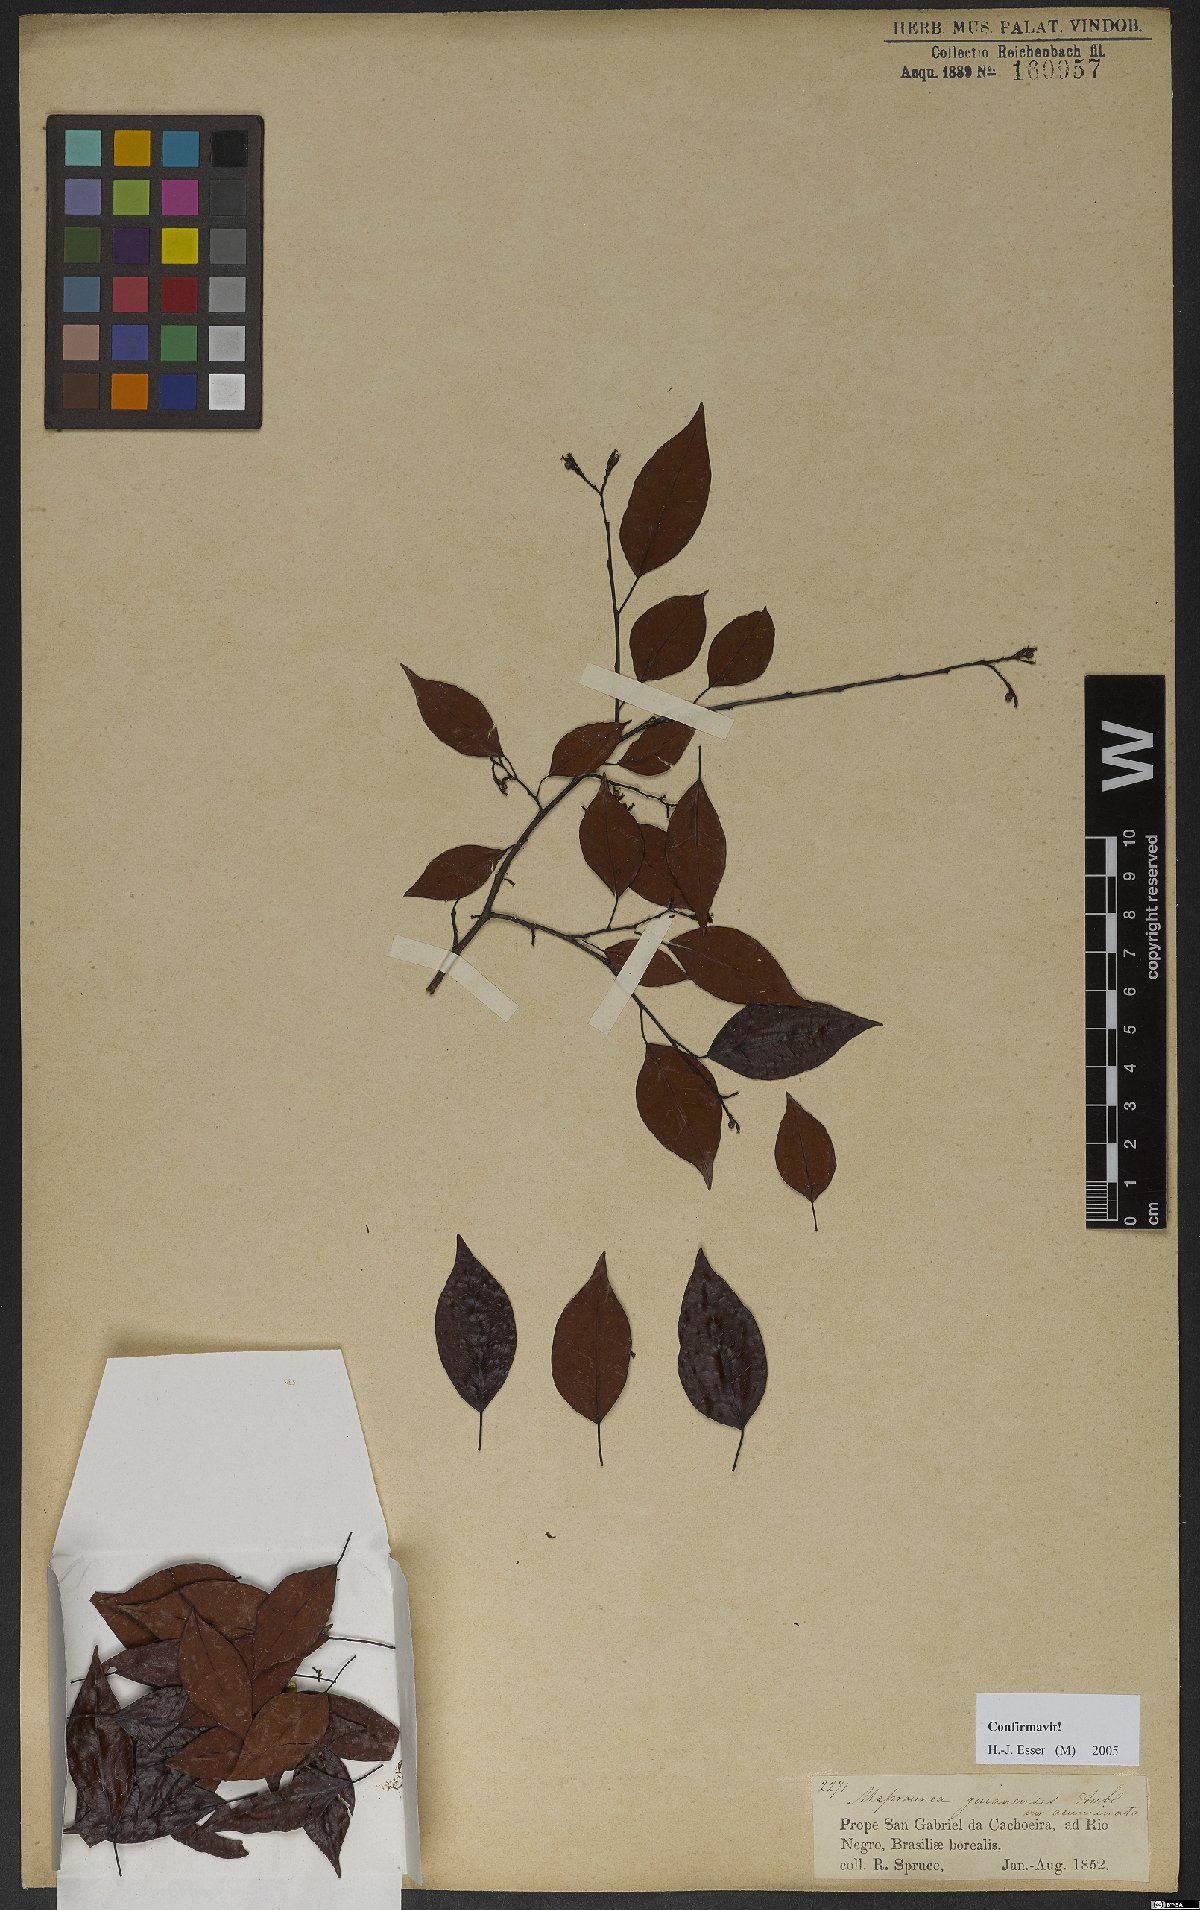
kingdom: Plantae
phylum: Tracheophyta
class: Magnoliopsida
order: Malpighiales
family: Euphorbiaceae
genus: Maprounea
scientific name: Maprounea guianensis
